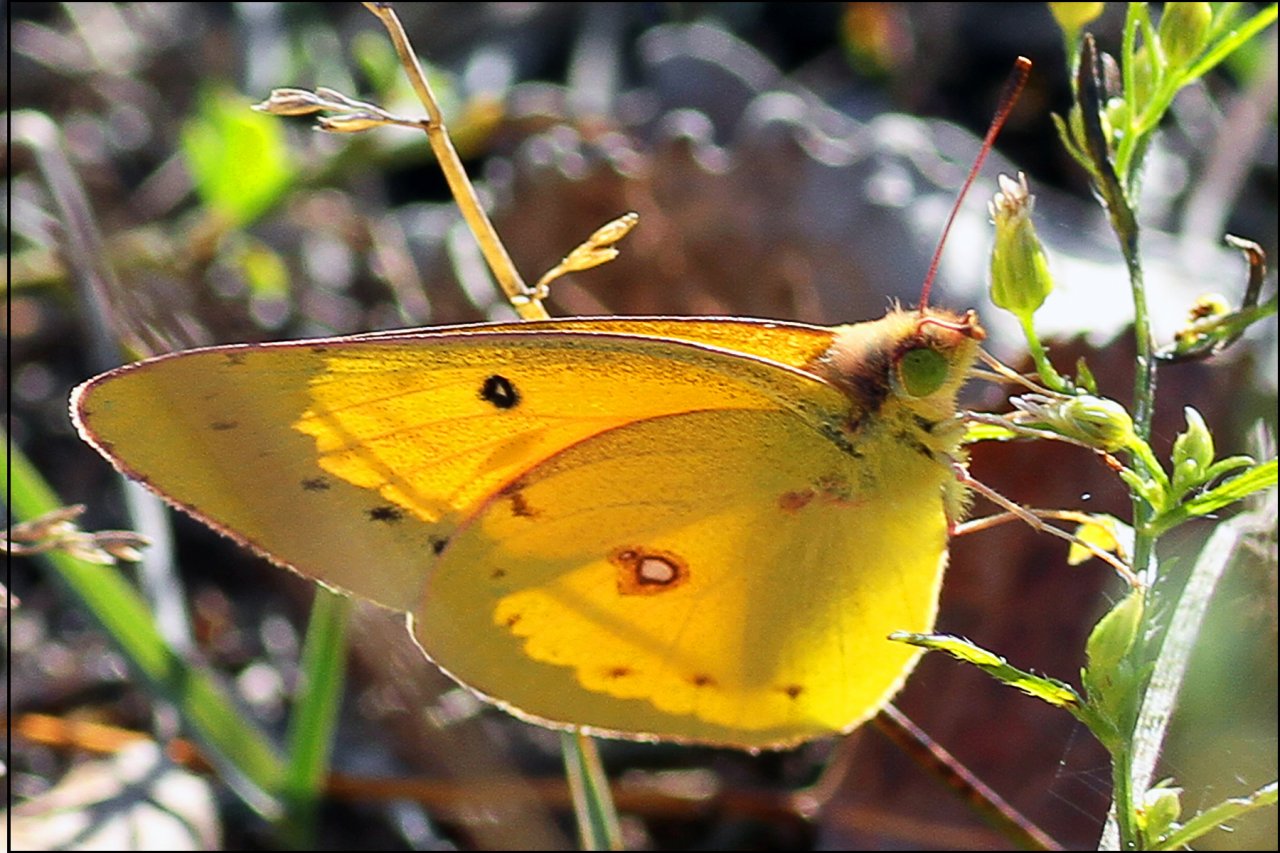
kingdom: Animalia
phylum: Arthropoda
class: Insecta
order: Lepidoptera
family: Pieridae
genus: Colias
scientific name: Colias eurytheme
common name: Orange Sulphur
